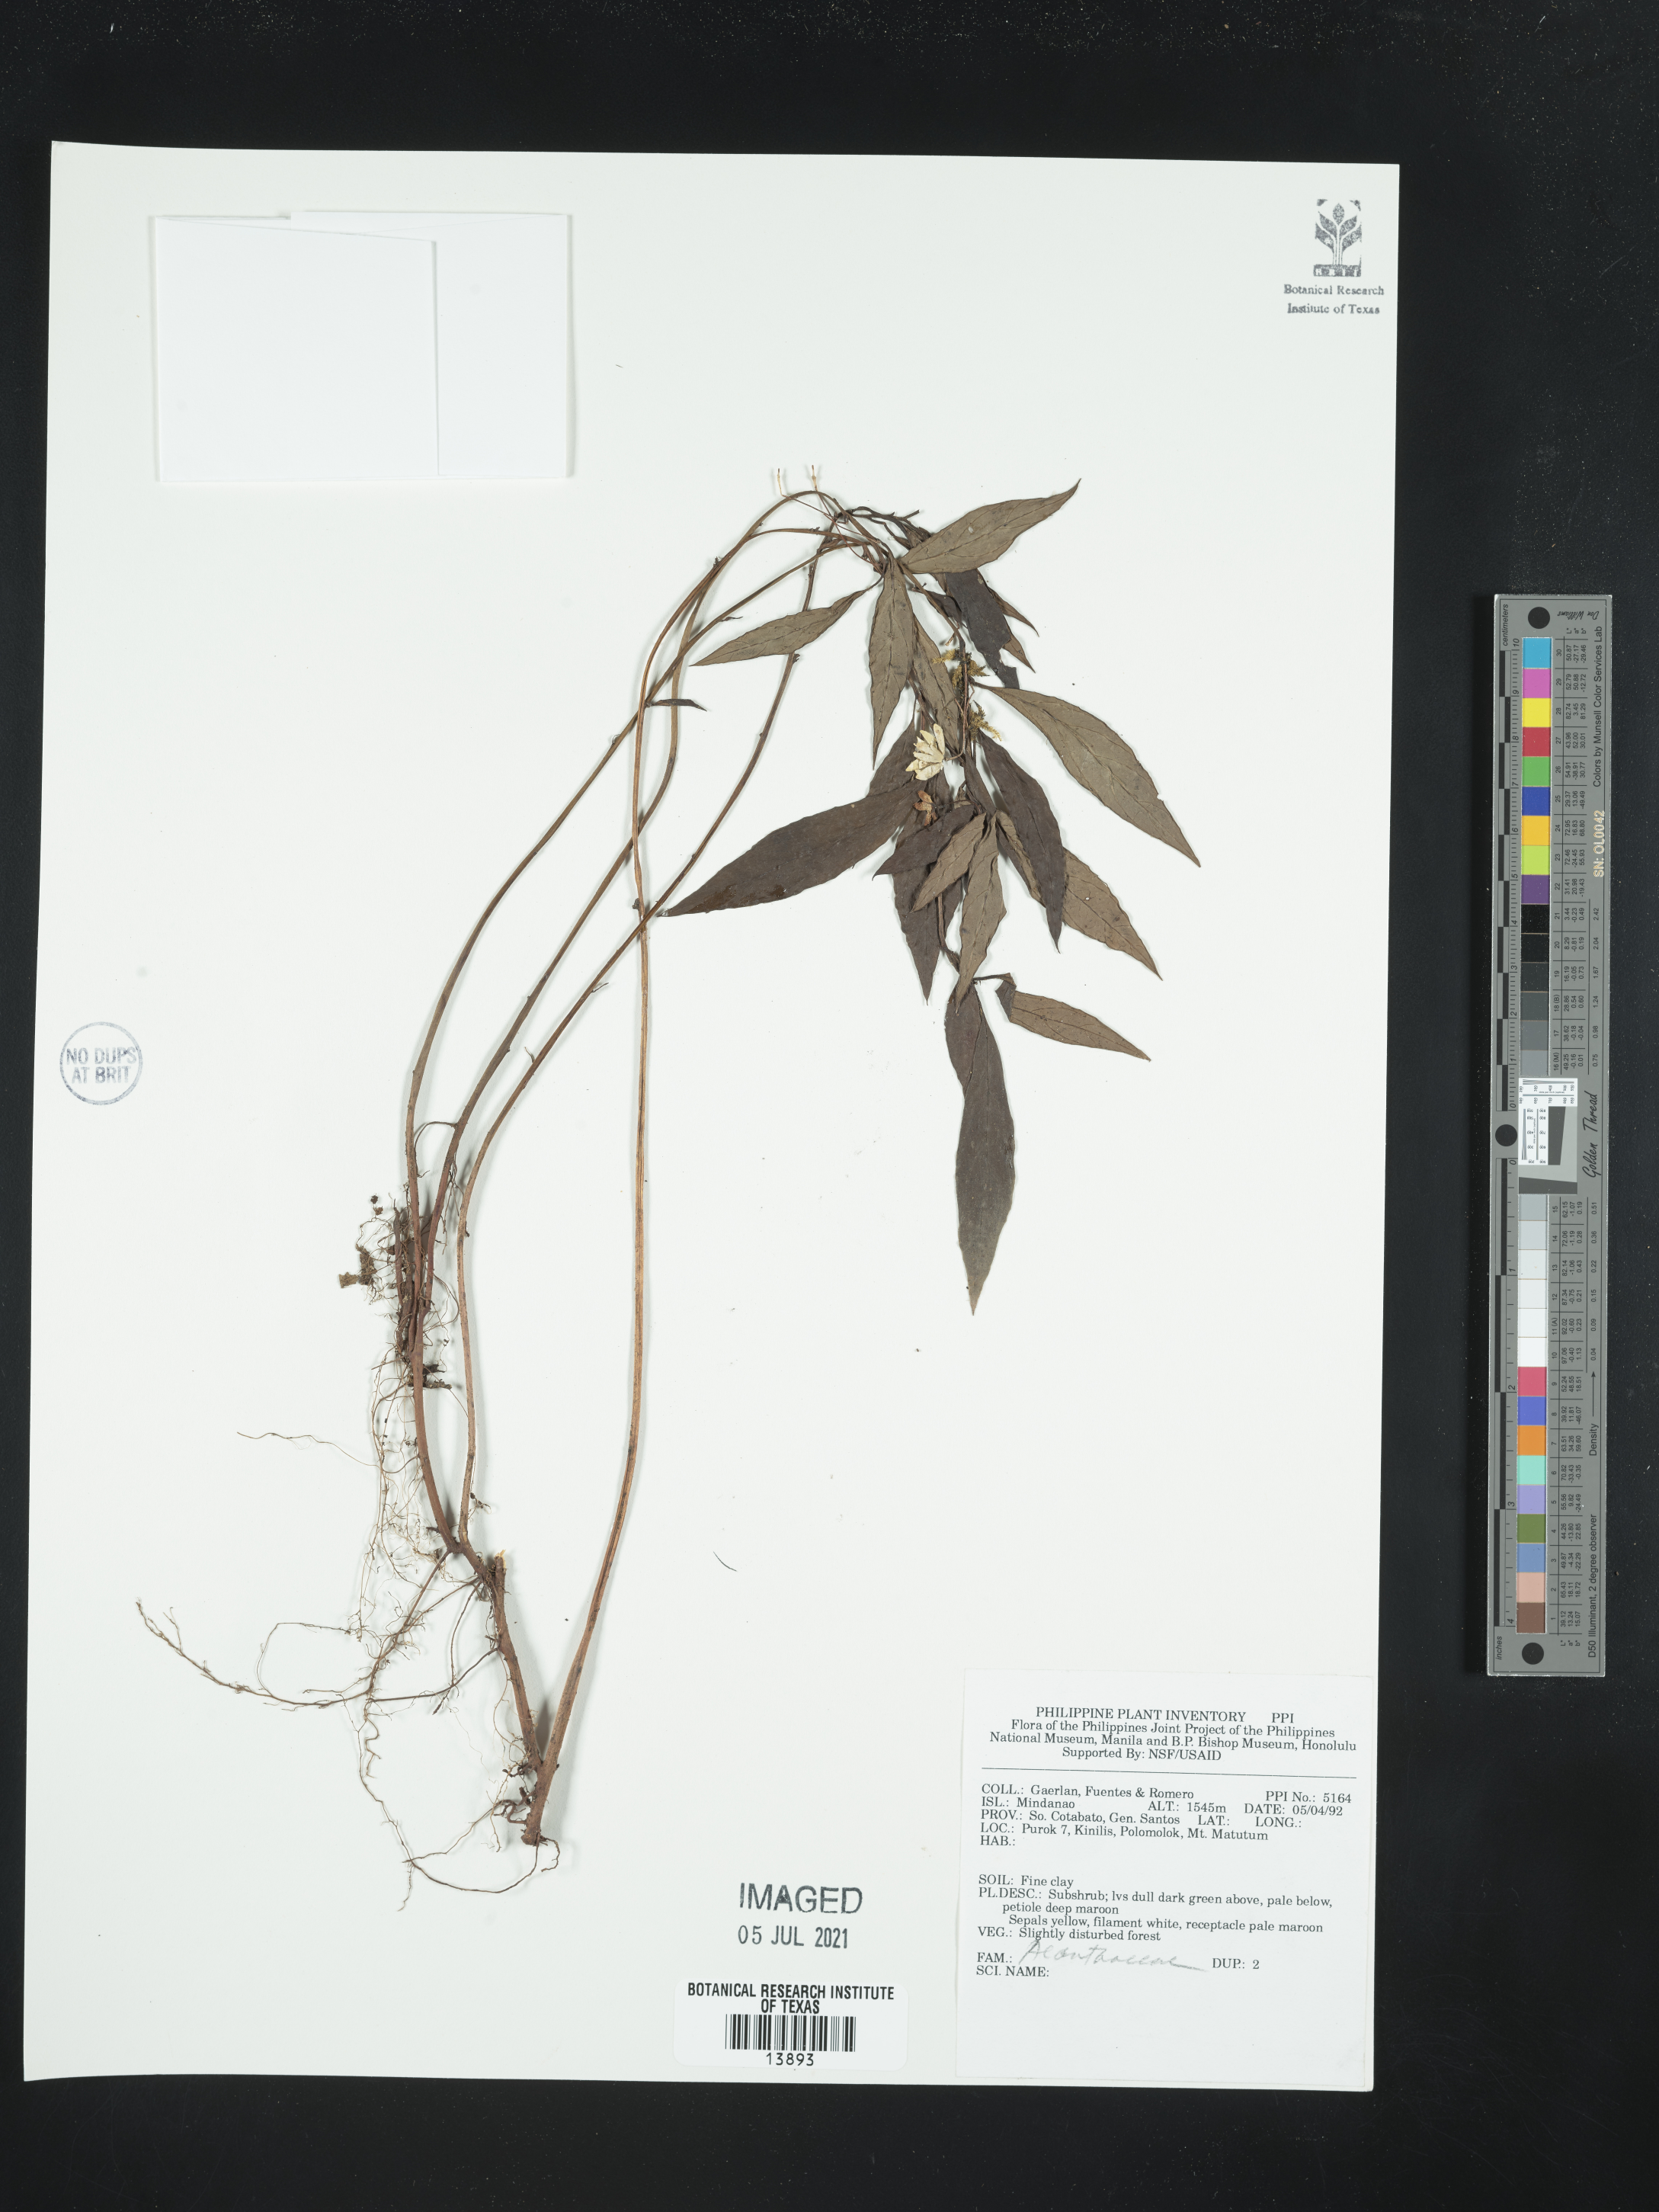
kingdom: Plantae
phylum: Tracheophyta
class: Magnoliopsida
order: Lamiales
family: Acanthaceae
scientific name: Acanthaceae
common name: Acanthaceae
